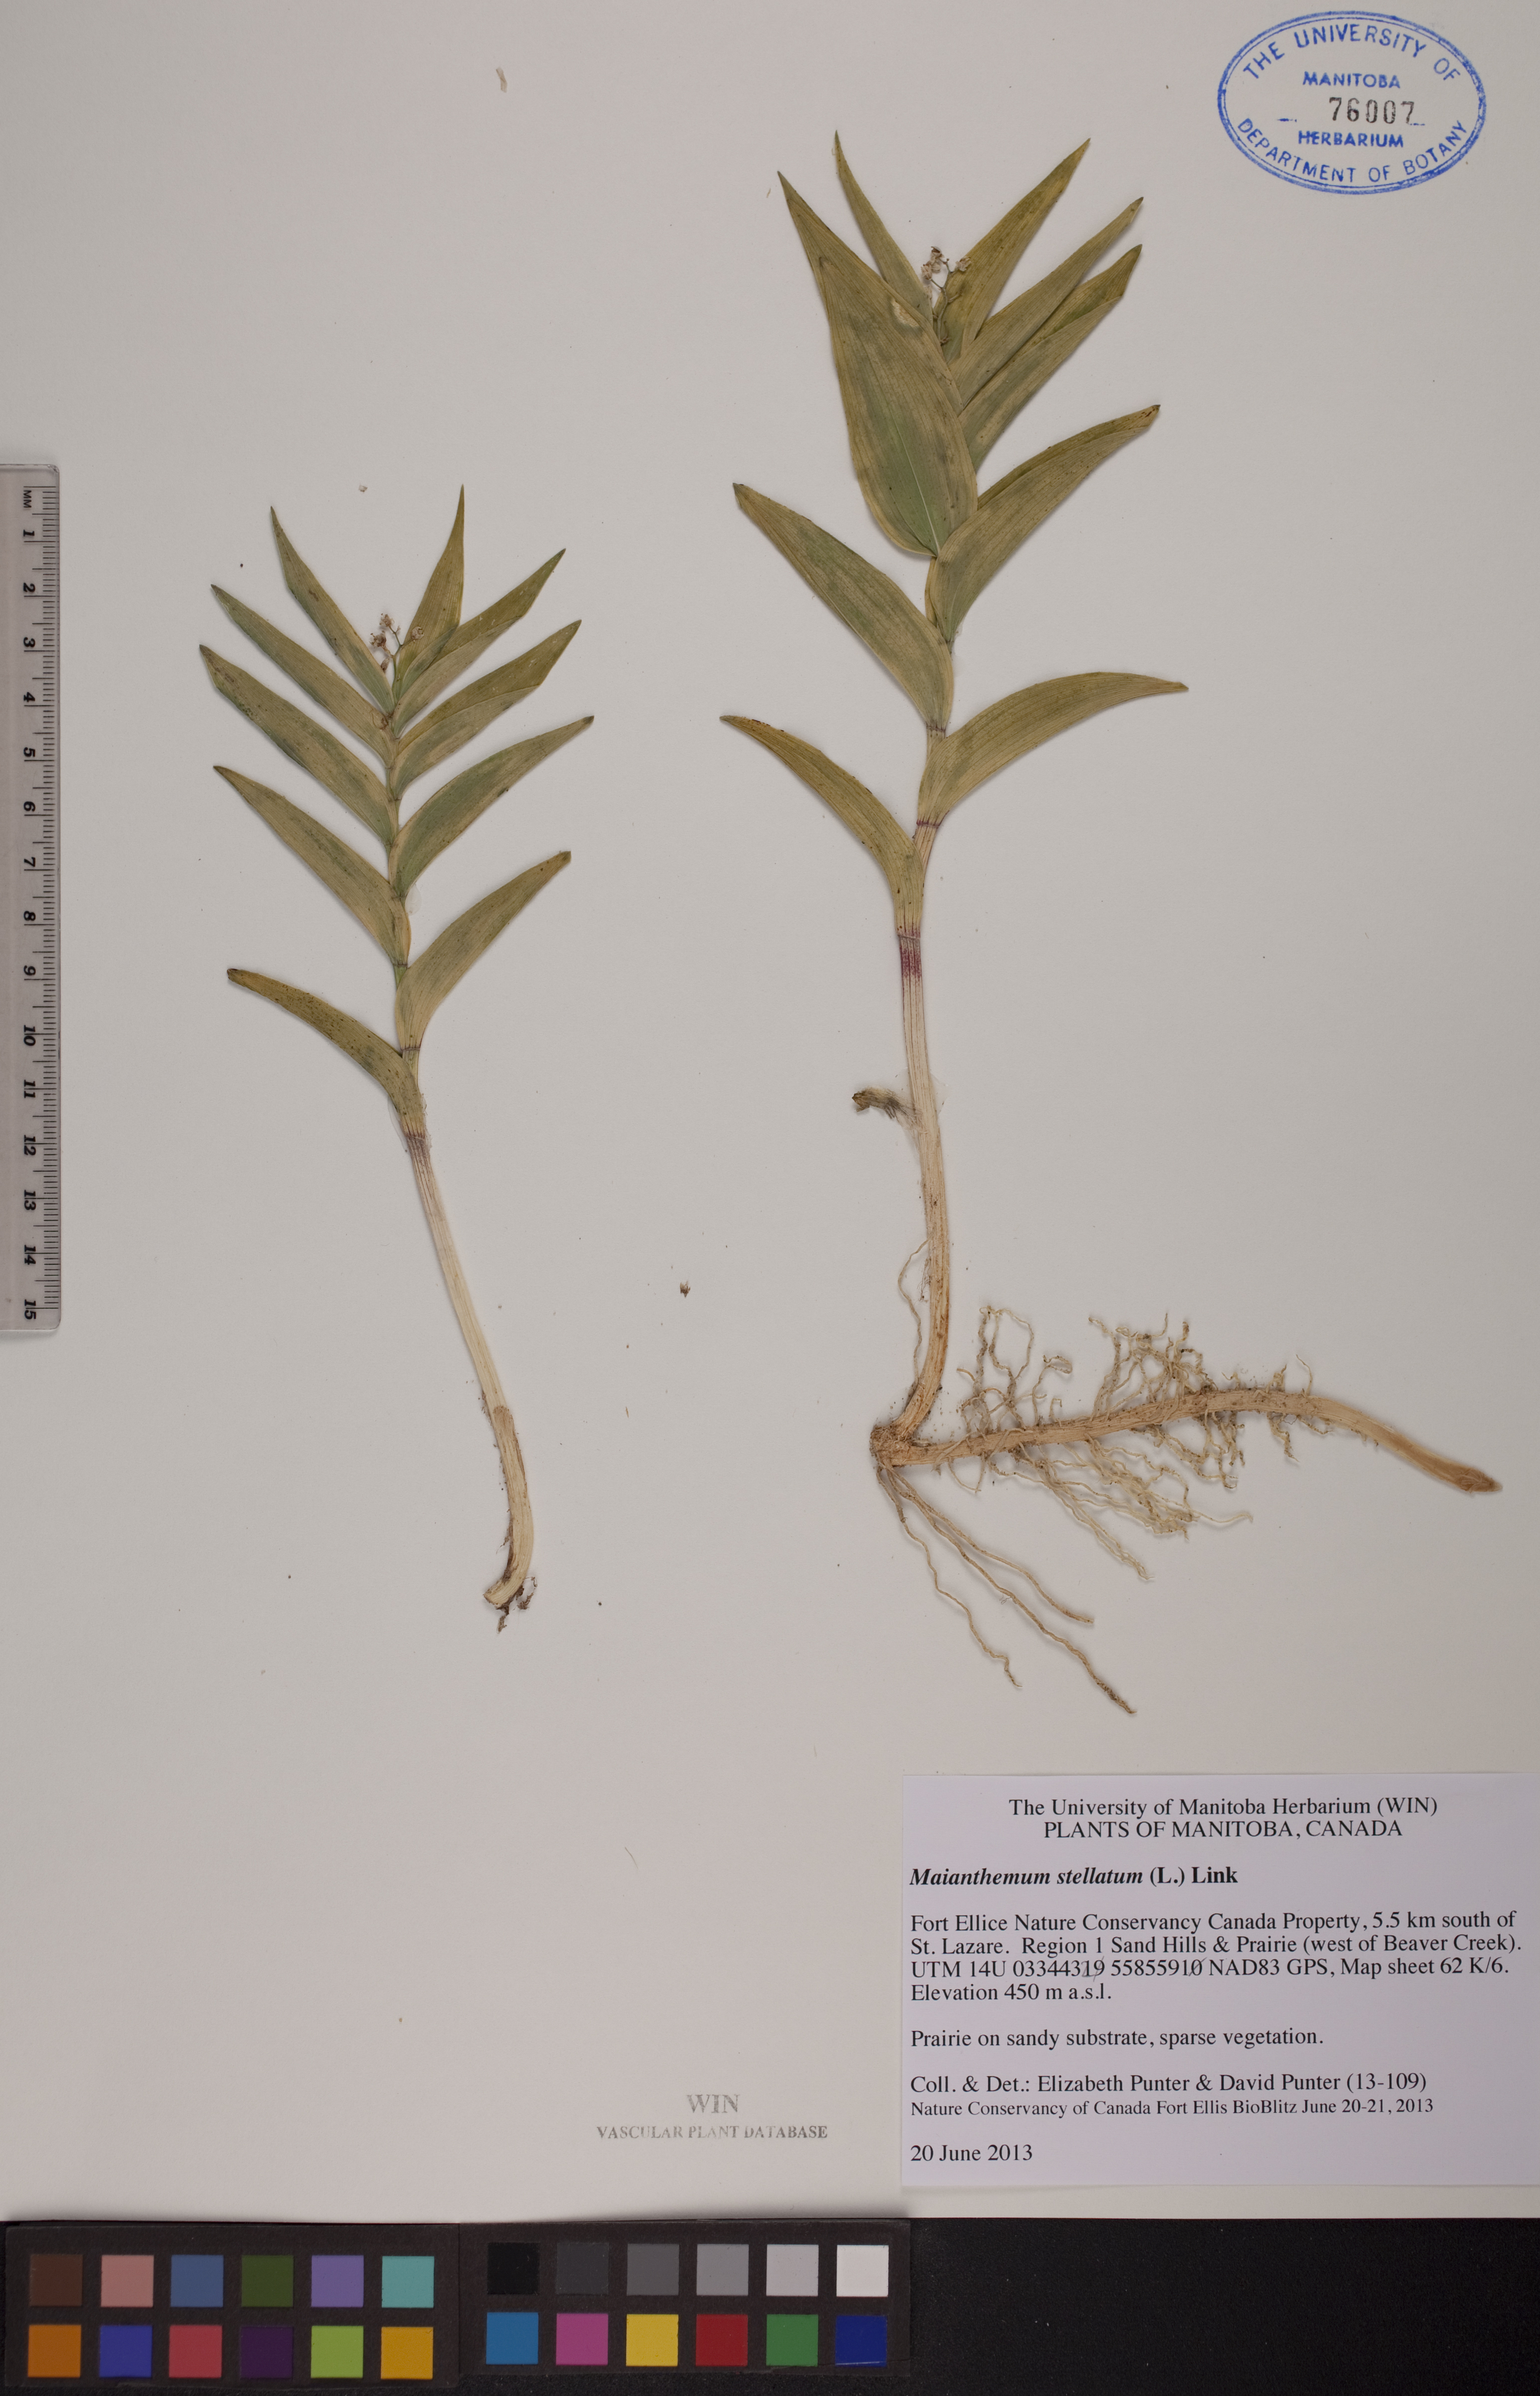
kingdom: Plantae
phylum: Tracheophyta
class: Liliopsida
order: Asparagales
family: Asparagaceae
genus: Maianthemum
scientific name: Maianthemum stellatum
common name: Little false solomon's seal
